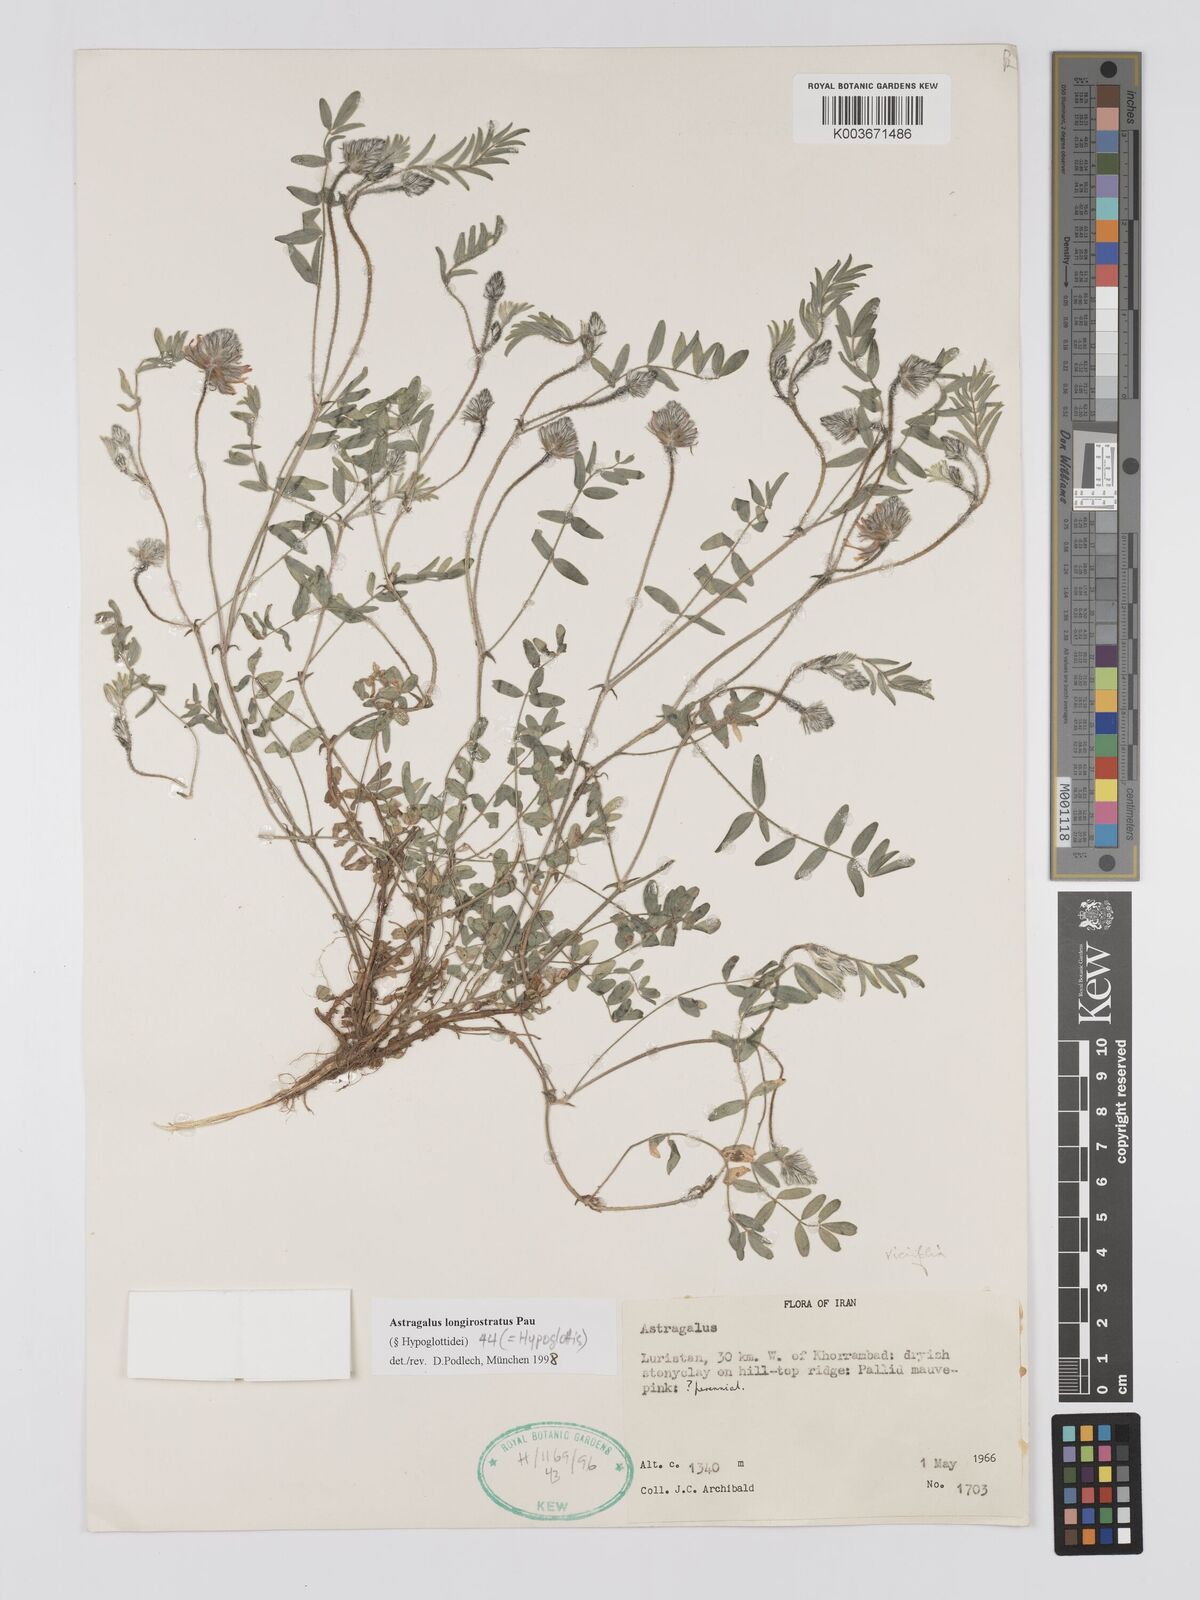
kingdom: Plantae
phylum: Tracheophyta
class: Magnoliopsida
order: Fabales
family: Fabaceae
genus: Astragalus
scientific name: Astragalus longirostratus
